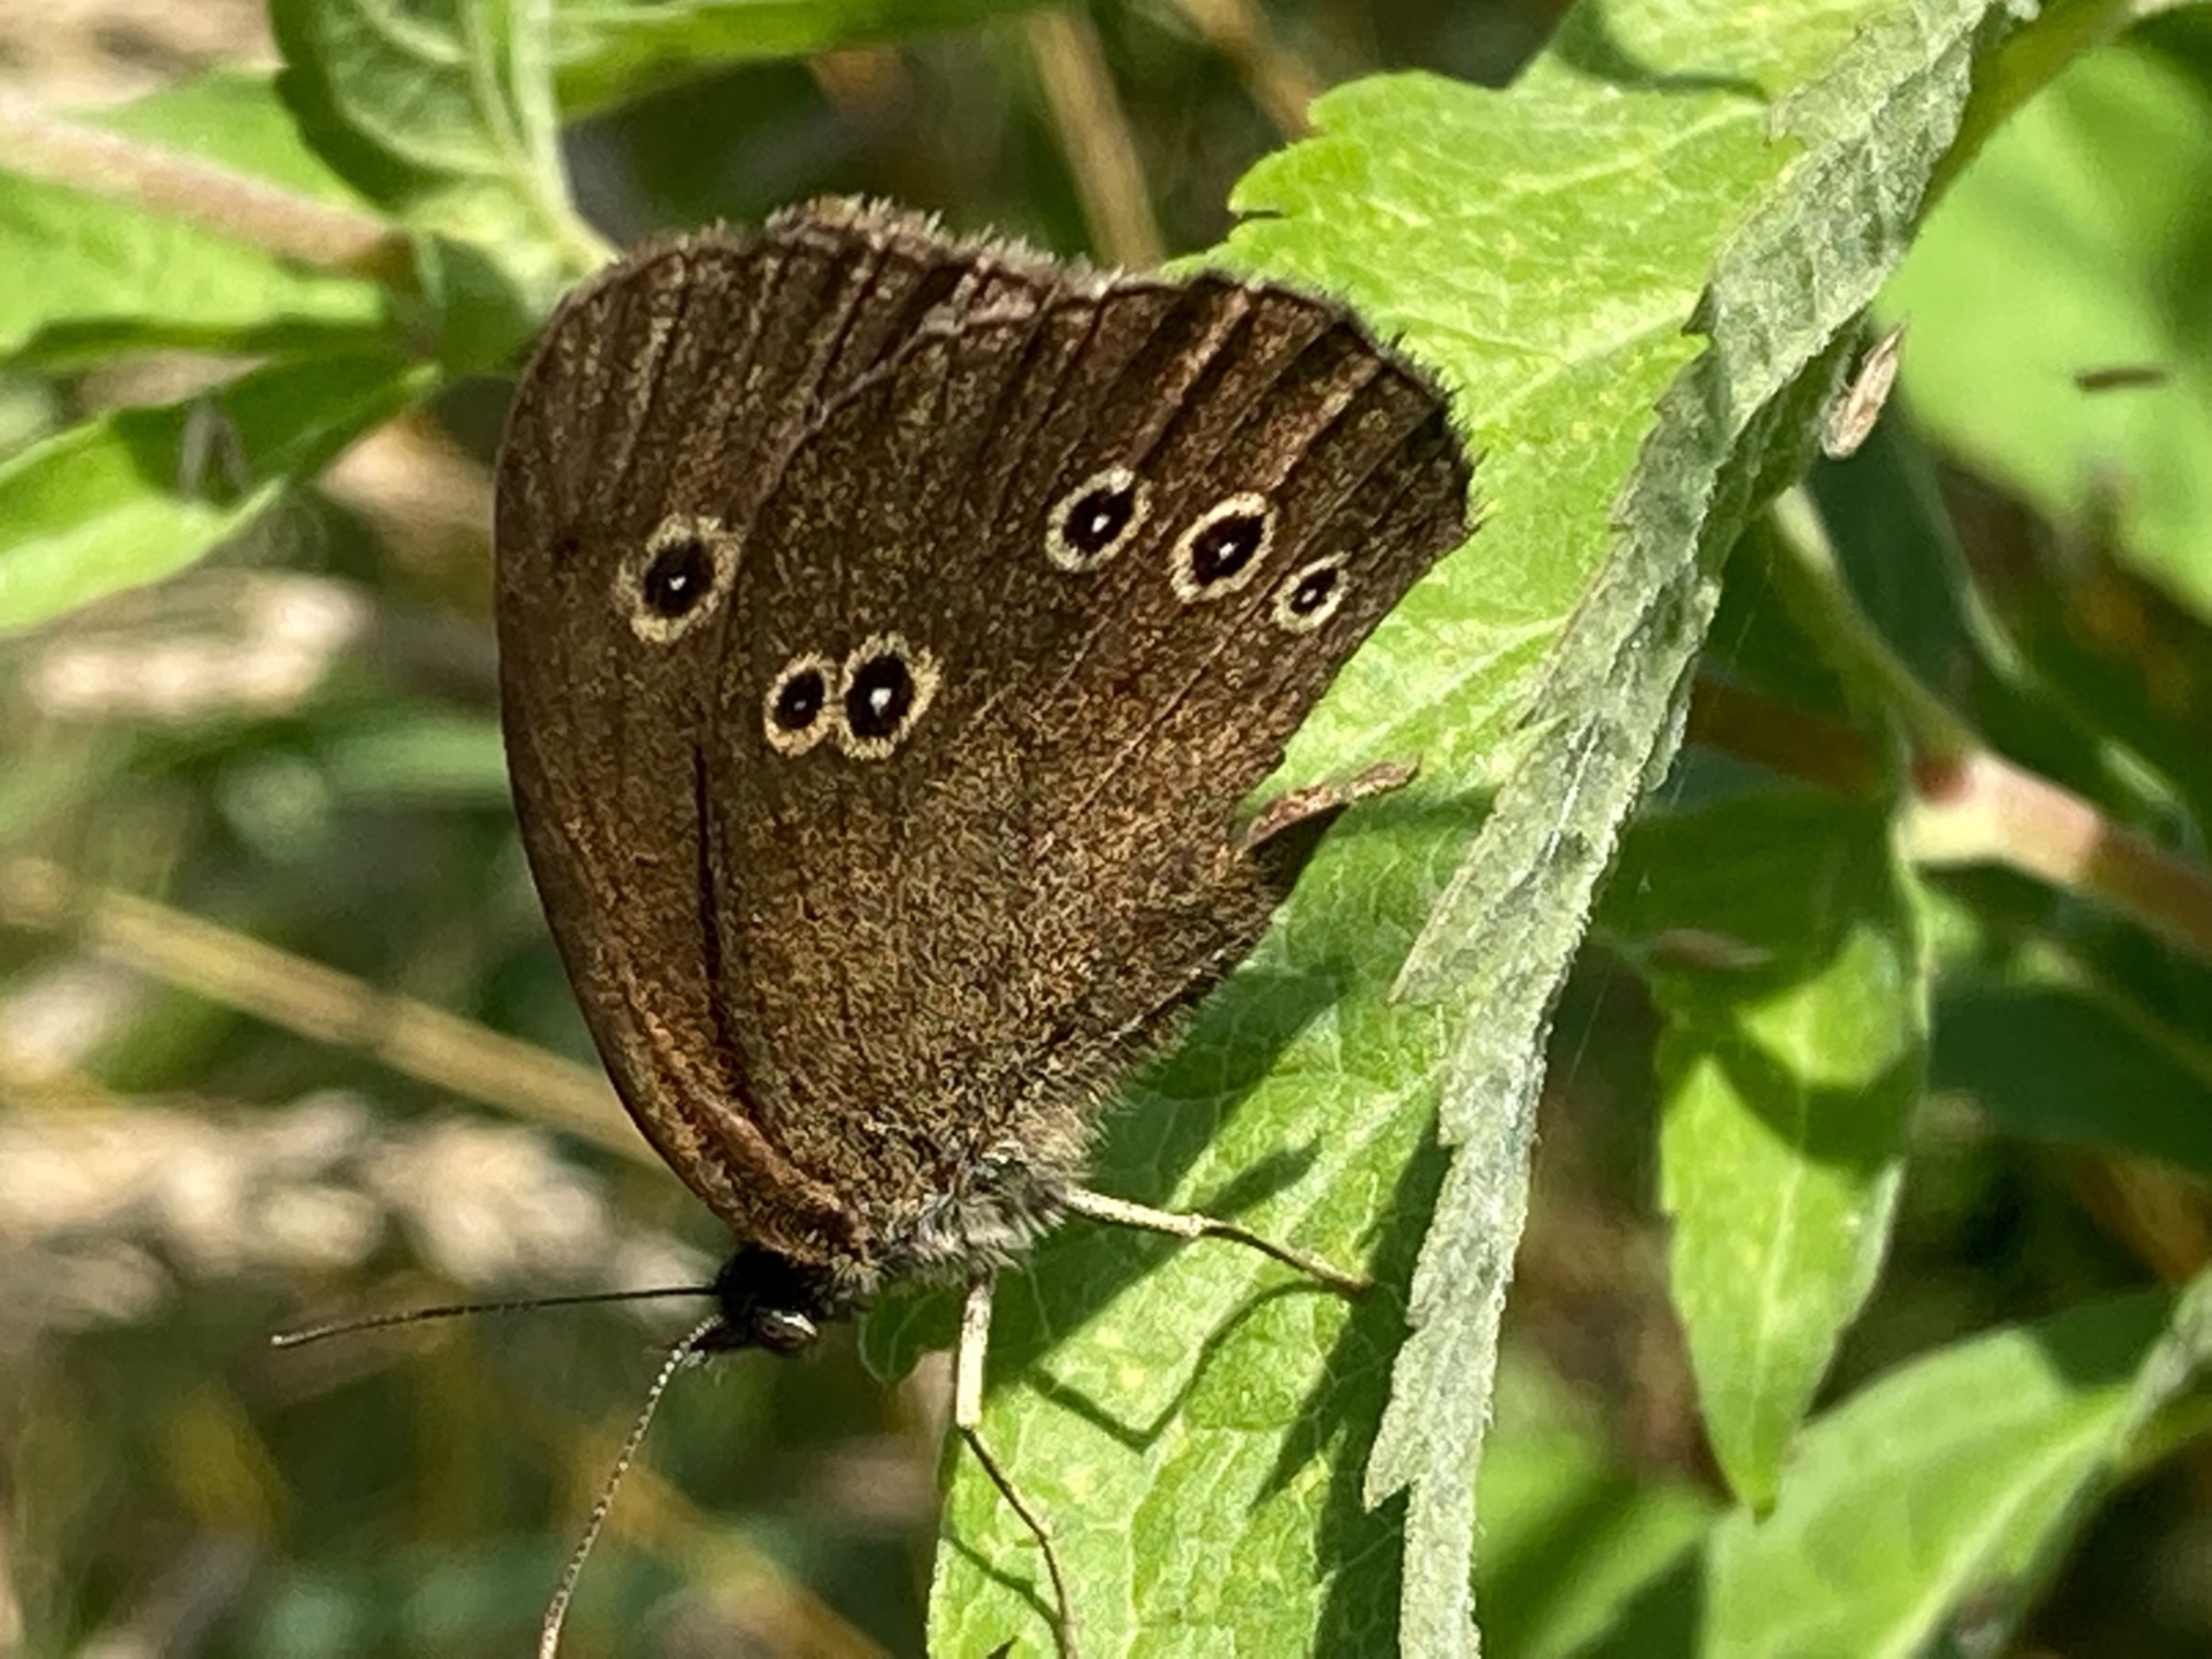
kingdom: Animalia
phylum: Arthropoda
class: Insecta
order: Lepidoptera
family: Nymphalidae
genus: Aphantopus
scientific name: Aphantopus hyperantus
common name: Engrandøje
